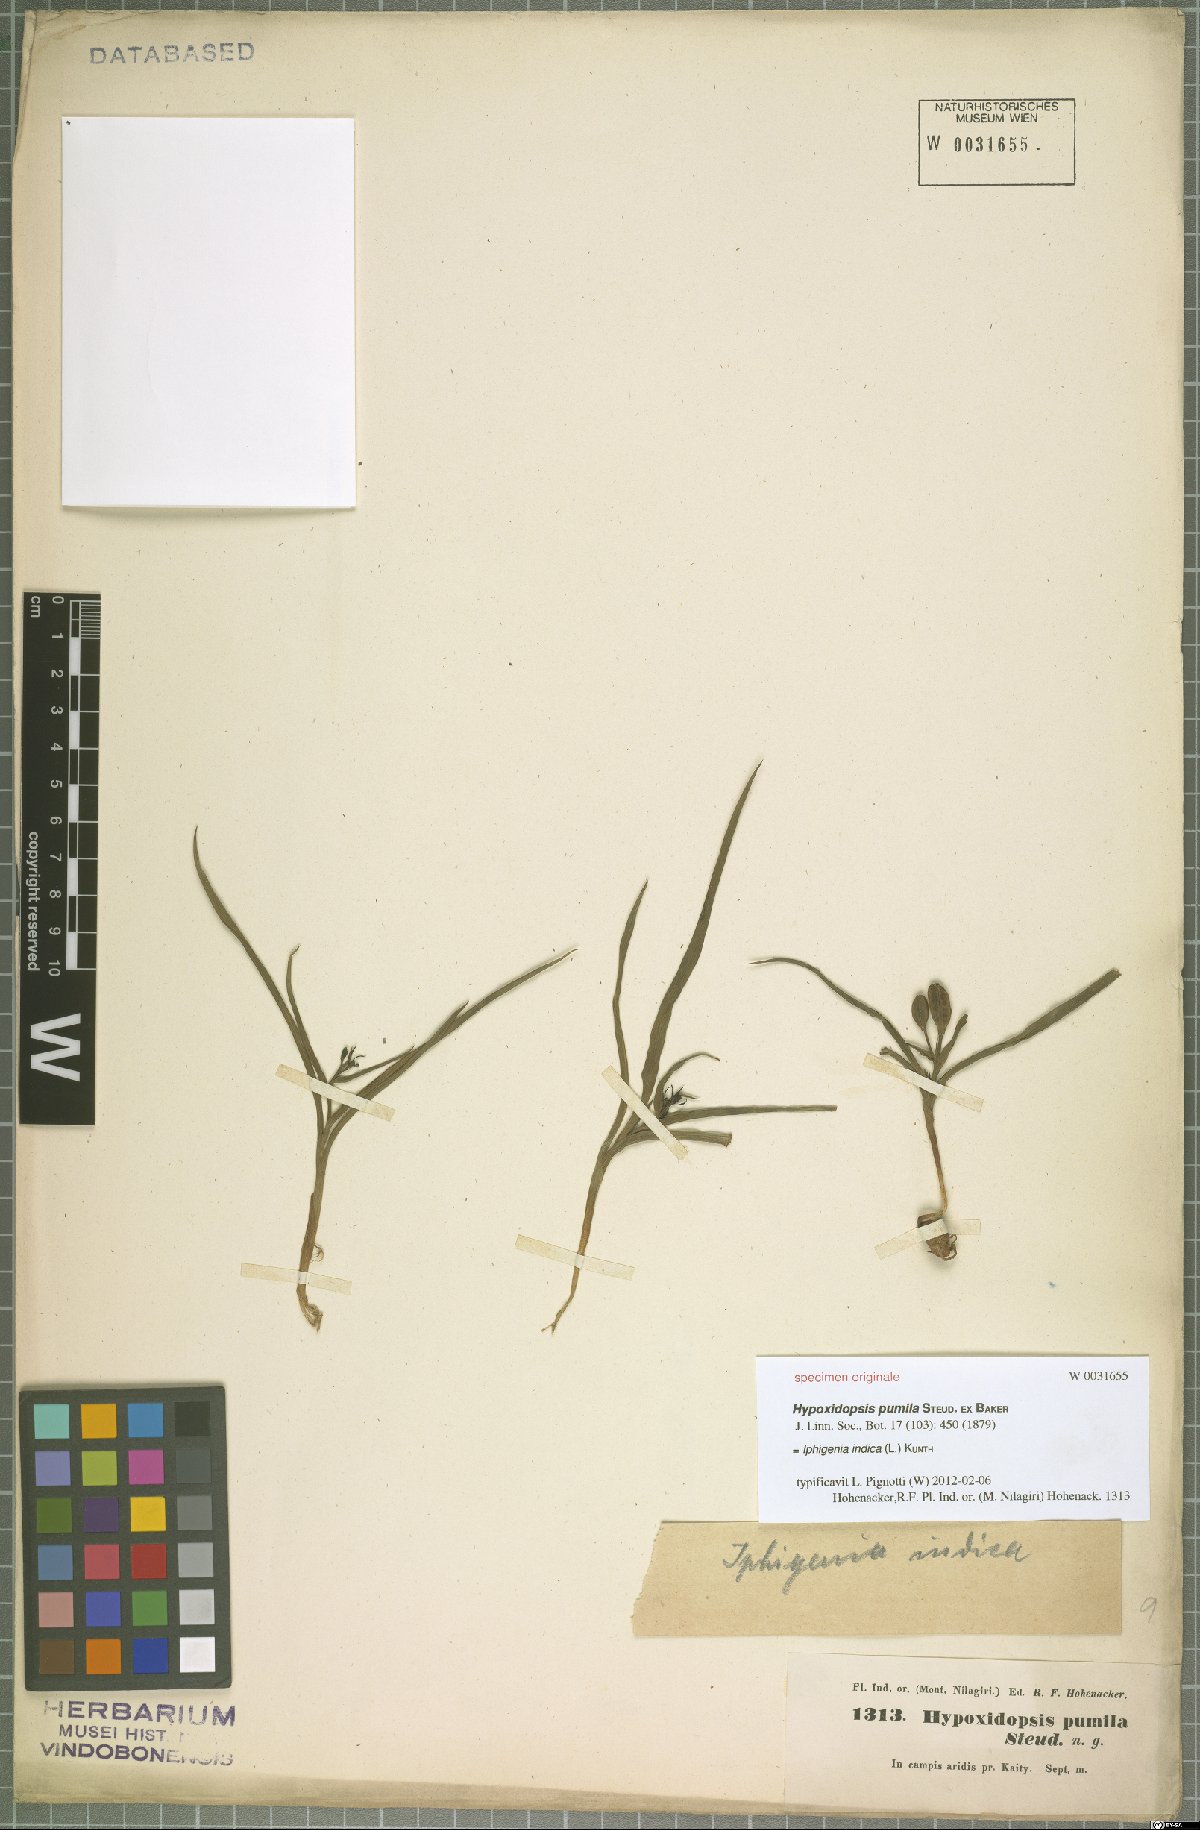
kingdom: Plantae
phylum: Tracheophyta
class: Liliopsida
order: Liliales
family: Colchicaceae
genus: Iphigenia
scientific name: Iphigenia indica
